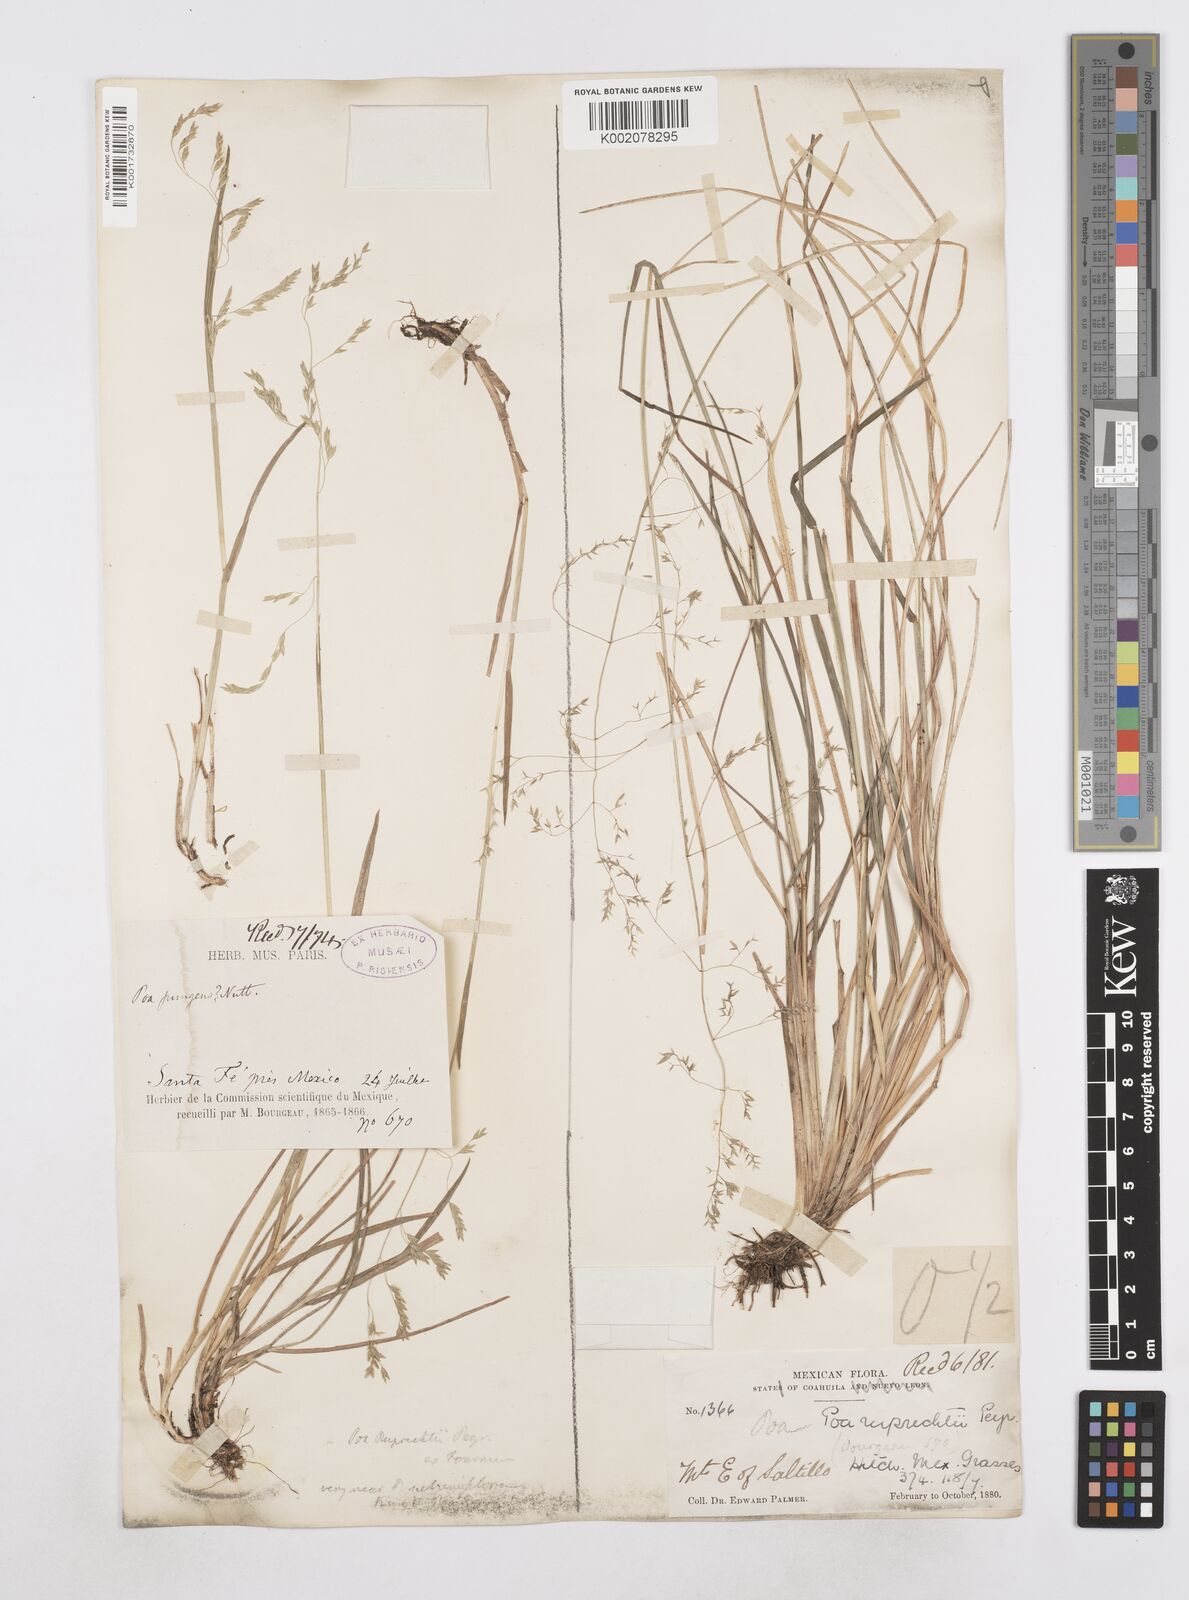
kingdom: Plantae
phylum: Tracheophyta
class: Liliopsida
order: Poales
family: Poaceae
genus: Poa
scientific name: Poa ruprechtii
